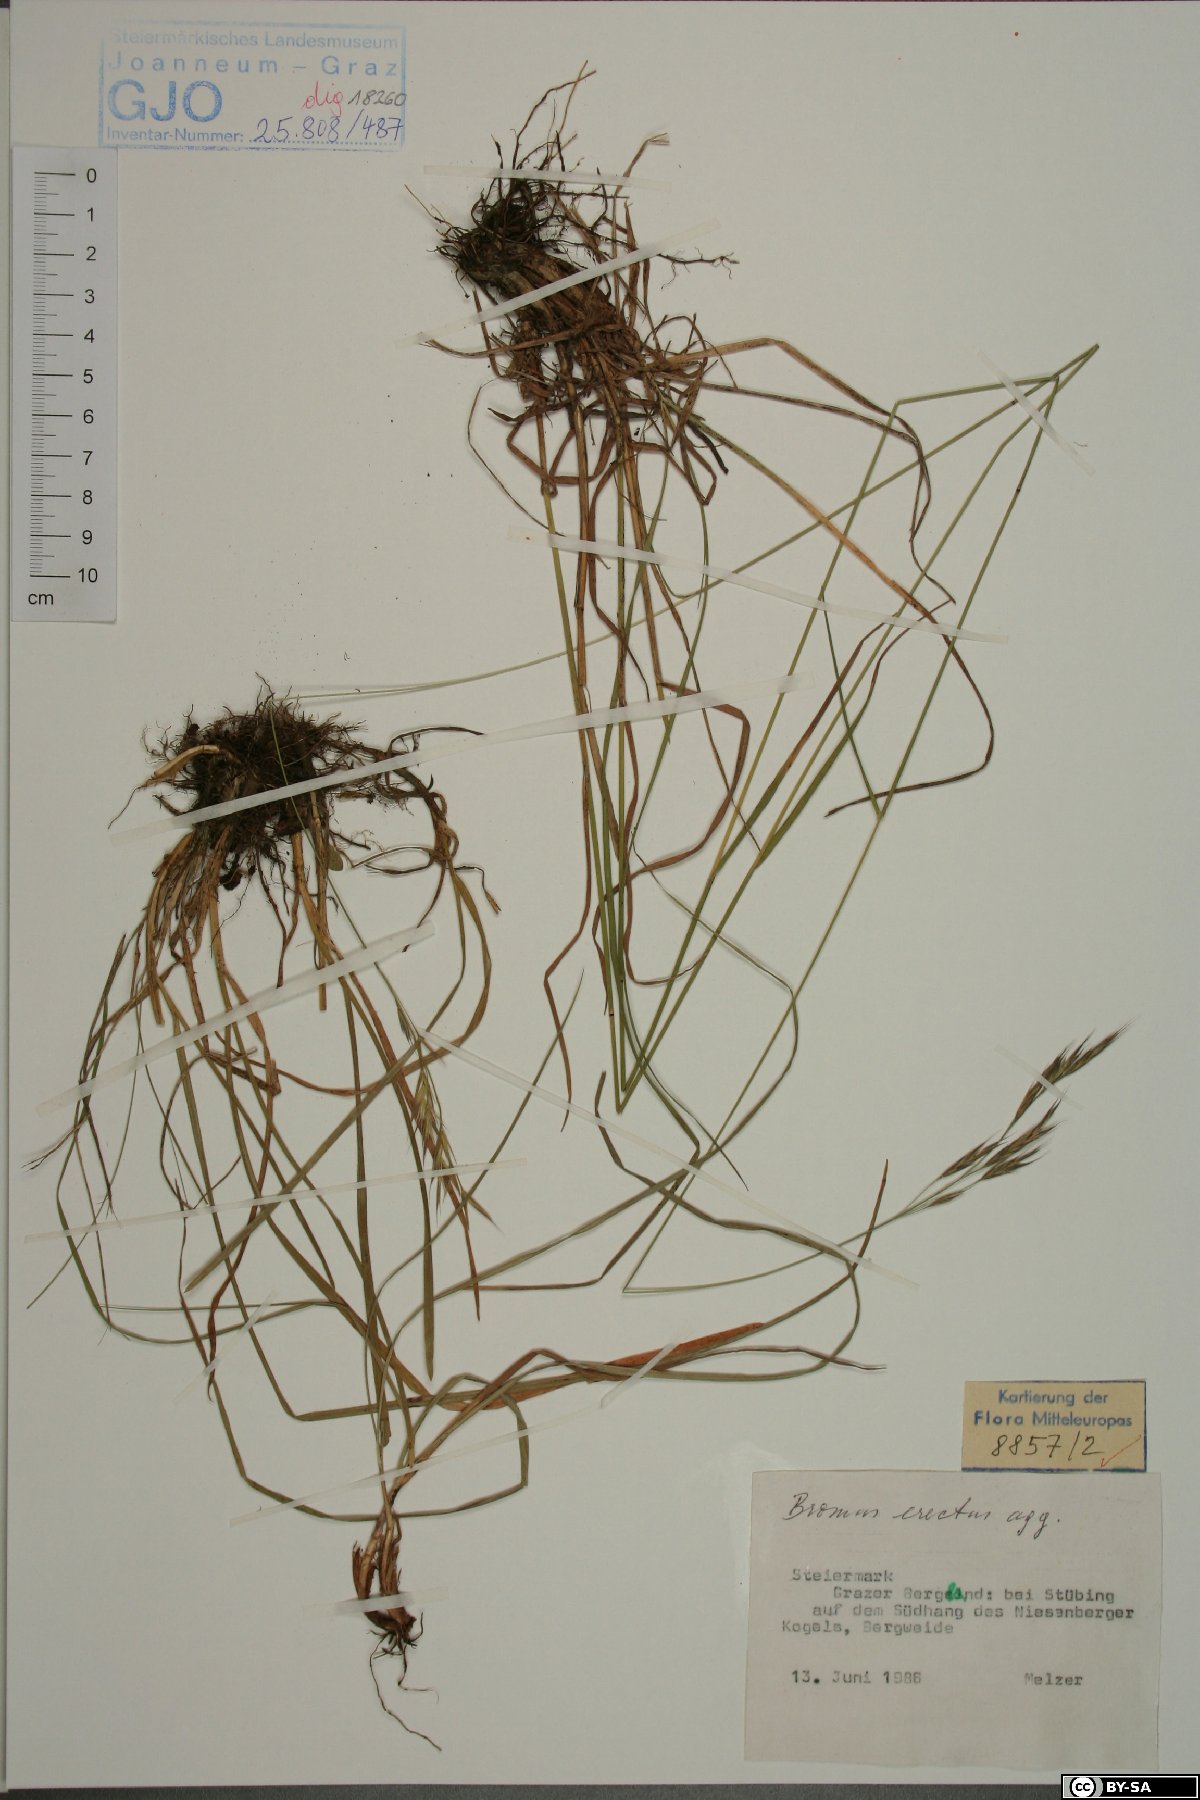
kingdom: Plantae
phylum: Tracheophyta
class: Liliopsida
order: Poales
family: Poaceae
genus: Bromus
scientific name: Bromus erectus
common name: Erect brome
